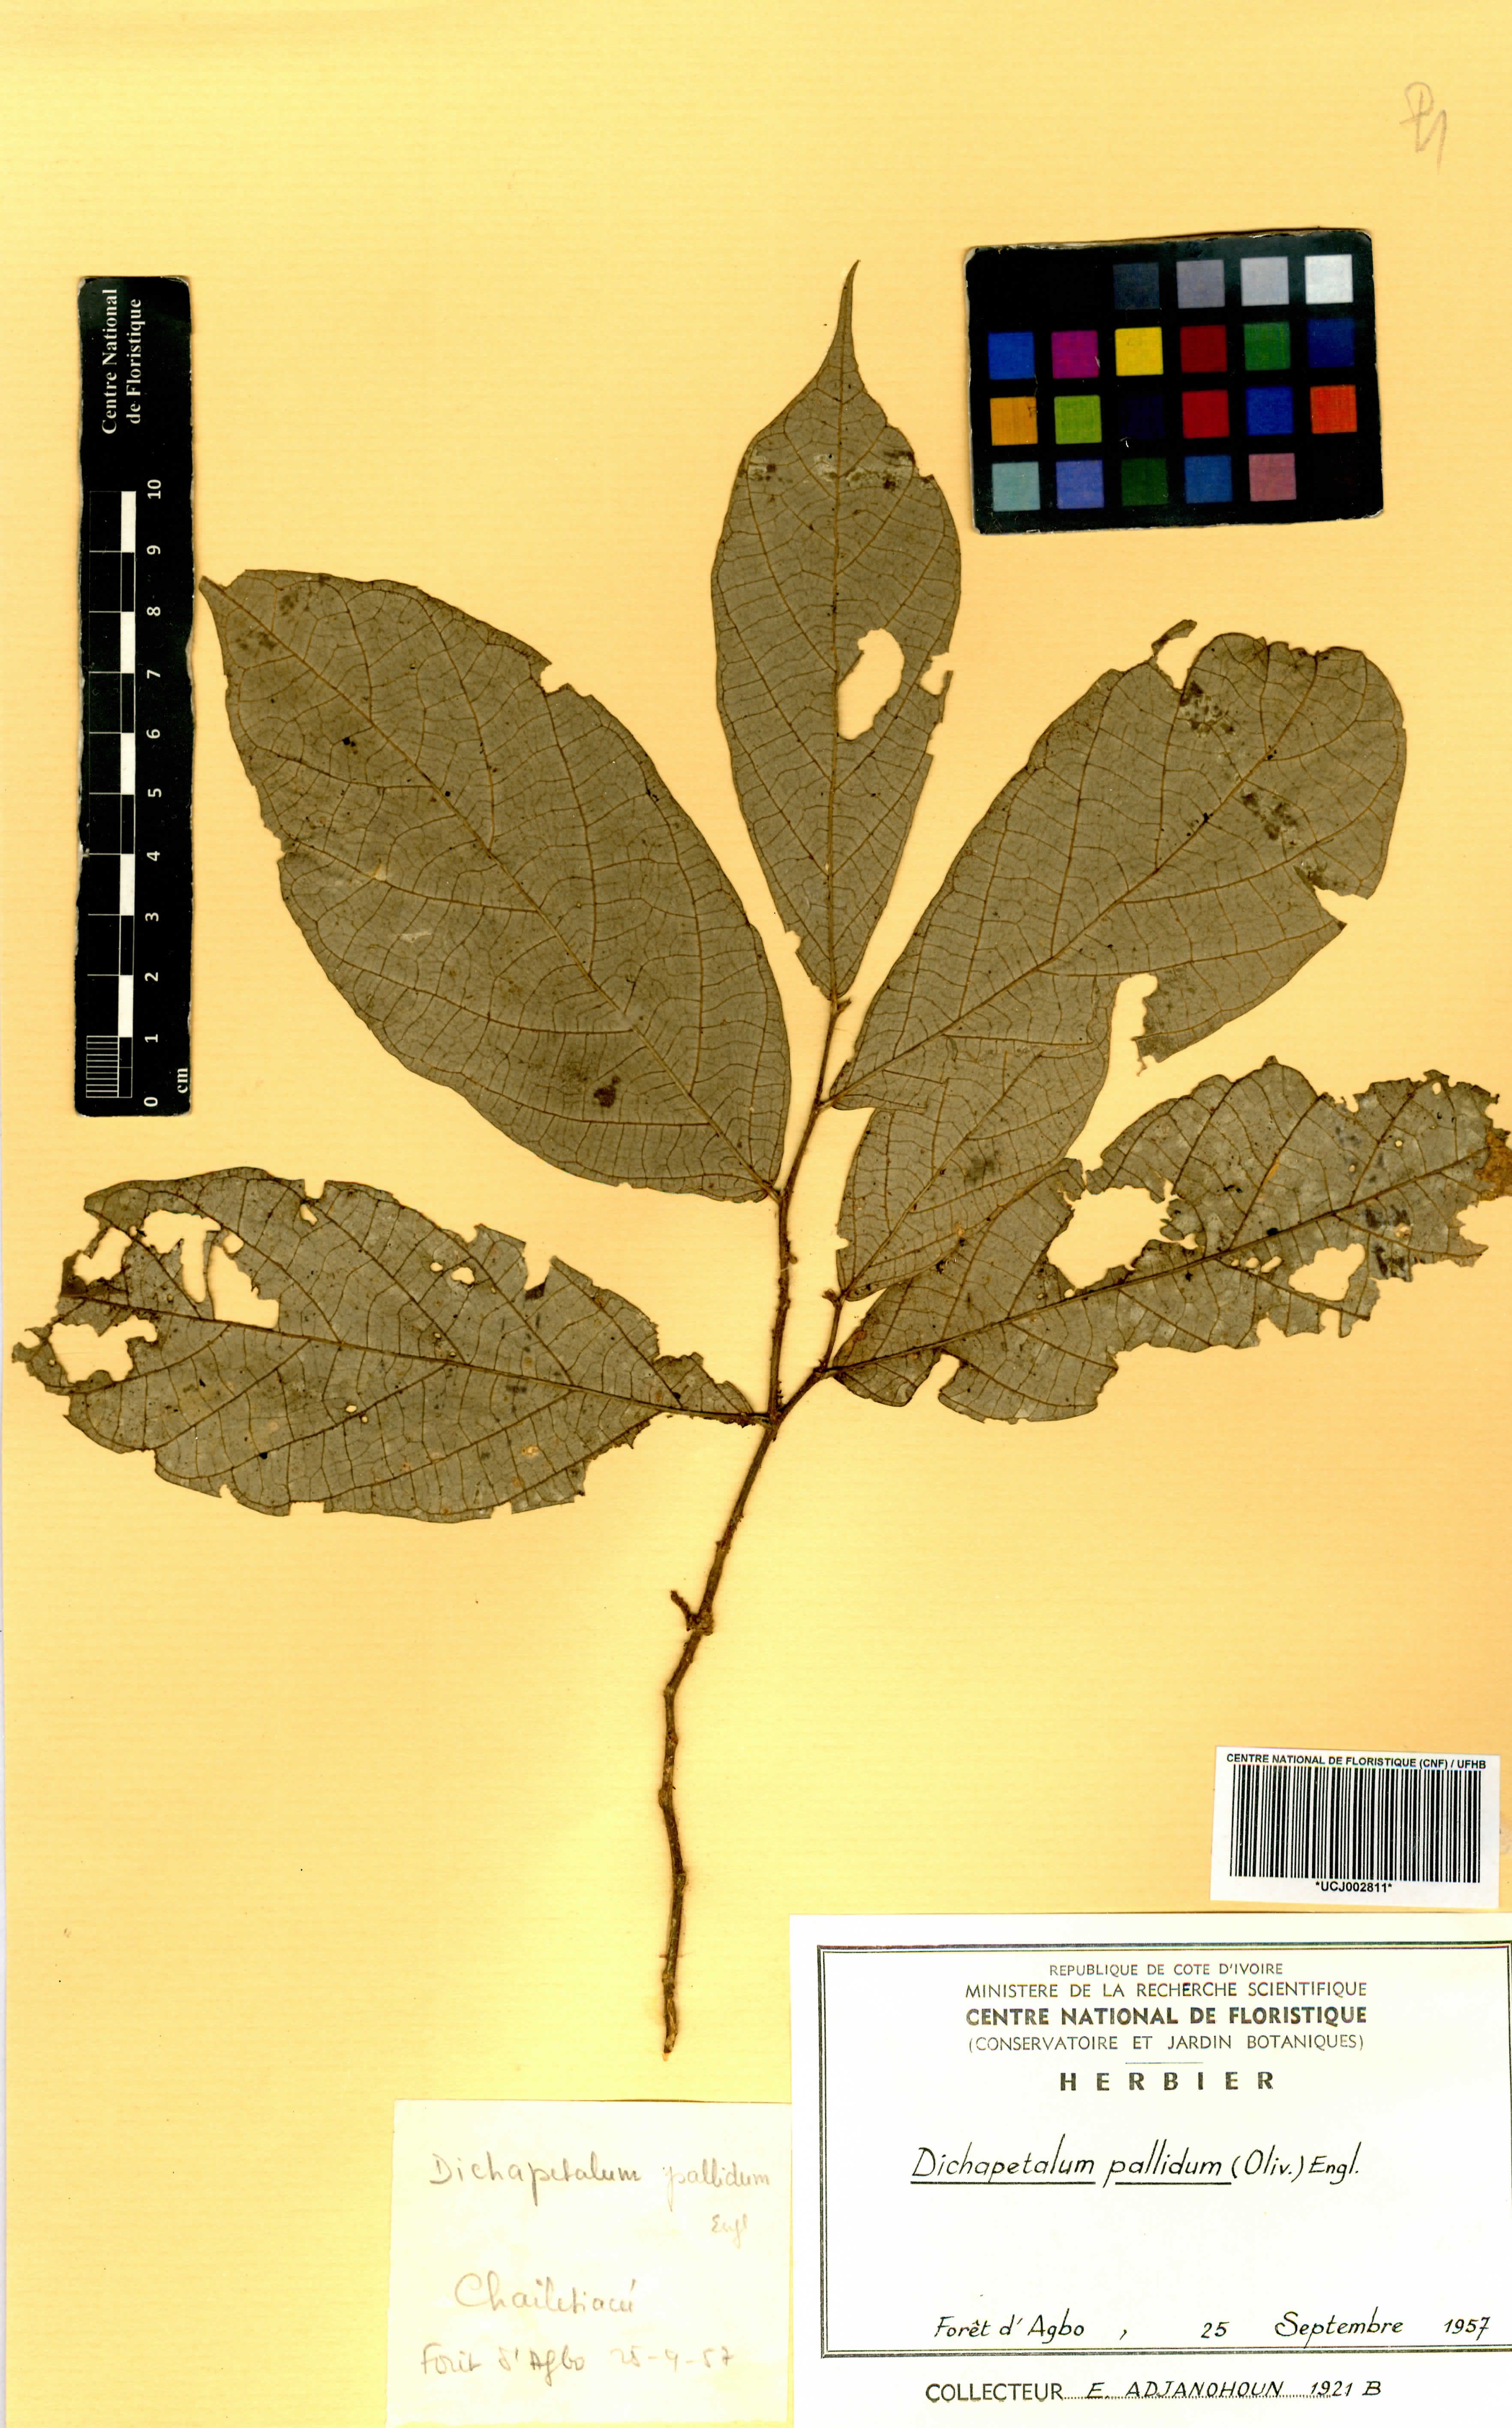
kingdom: Plantae
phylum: Tracheophyta
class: Magnoliopsida
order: Malpighiales
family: Dichapetalaceae
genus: Dichapetalum
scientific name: Dichapetalum pallidum
